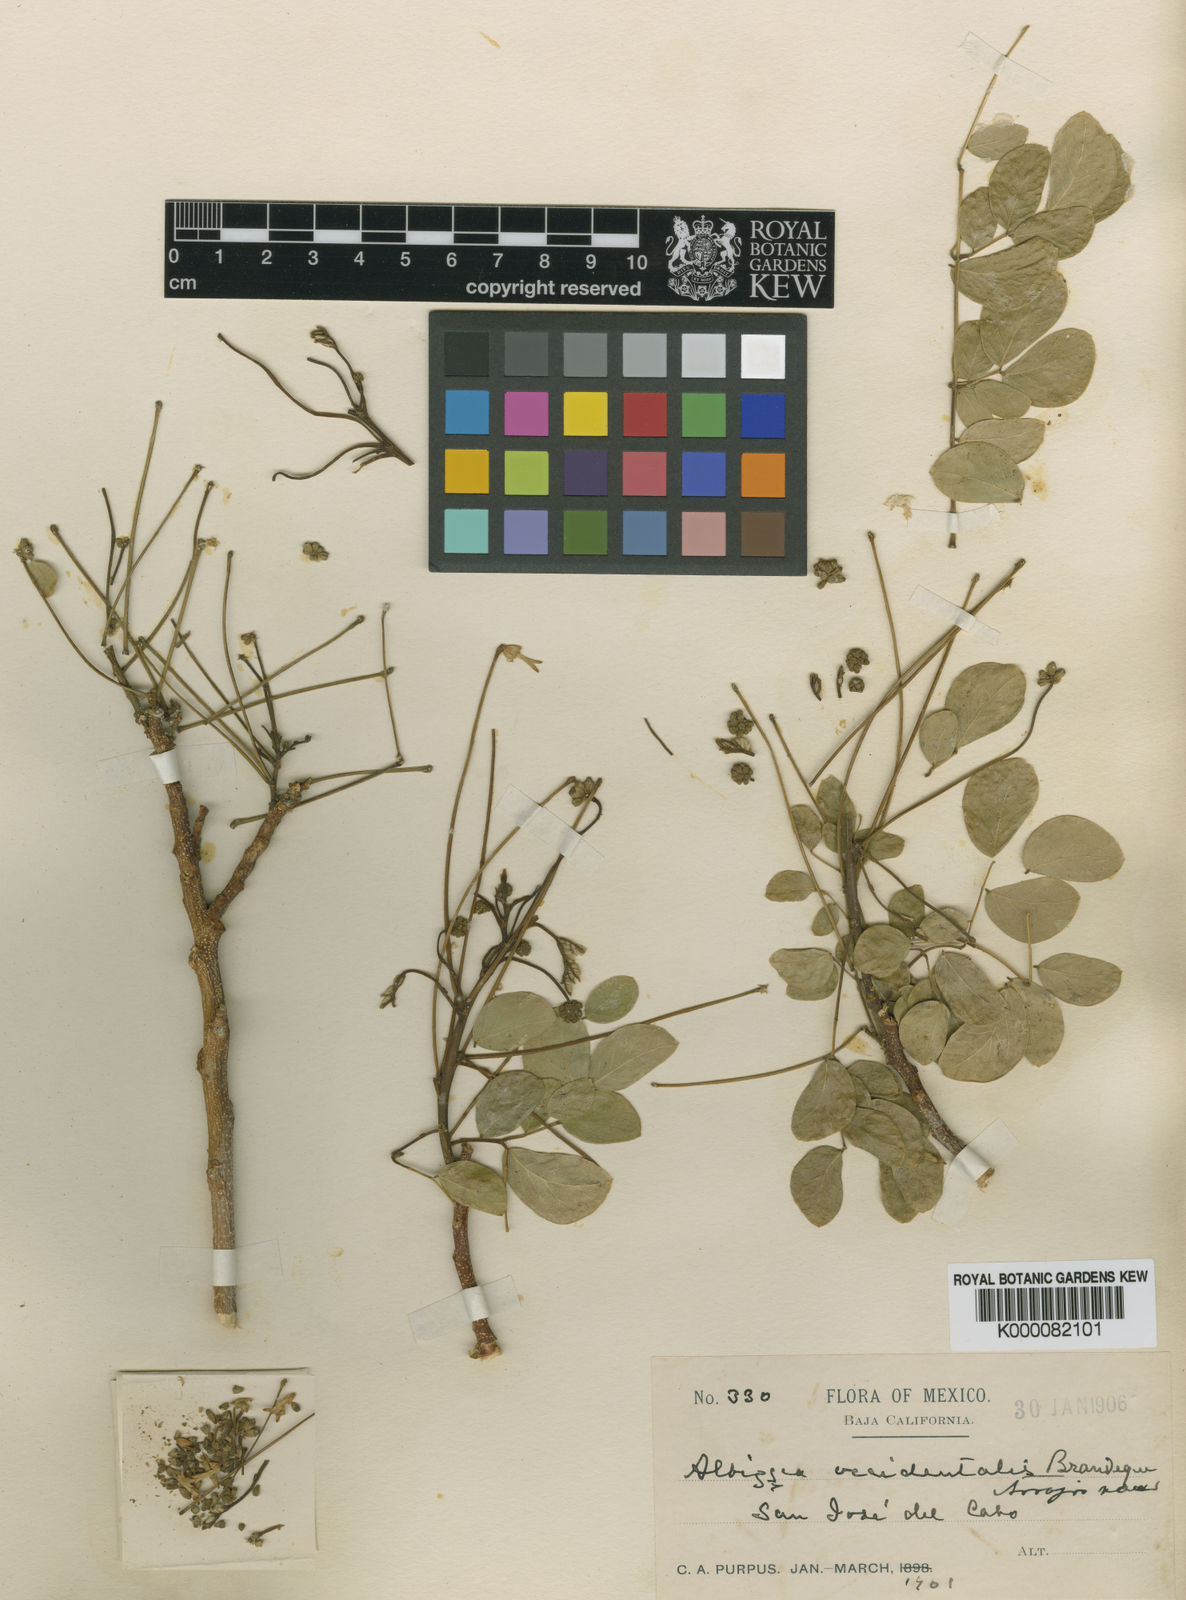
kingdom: Plantae
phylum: Tracheophyta
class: Magnoliopsida
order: Fabales
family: Fabaceae
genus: Albizia
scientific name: Albizia occidentalis
